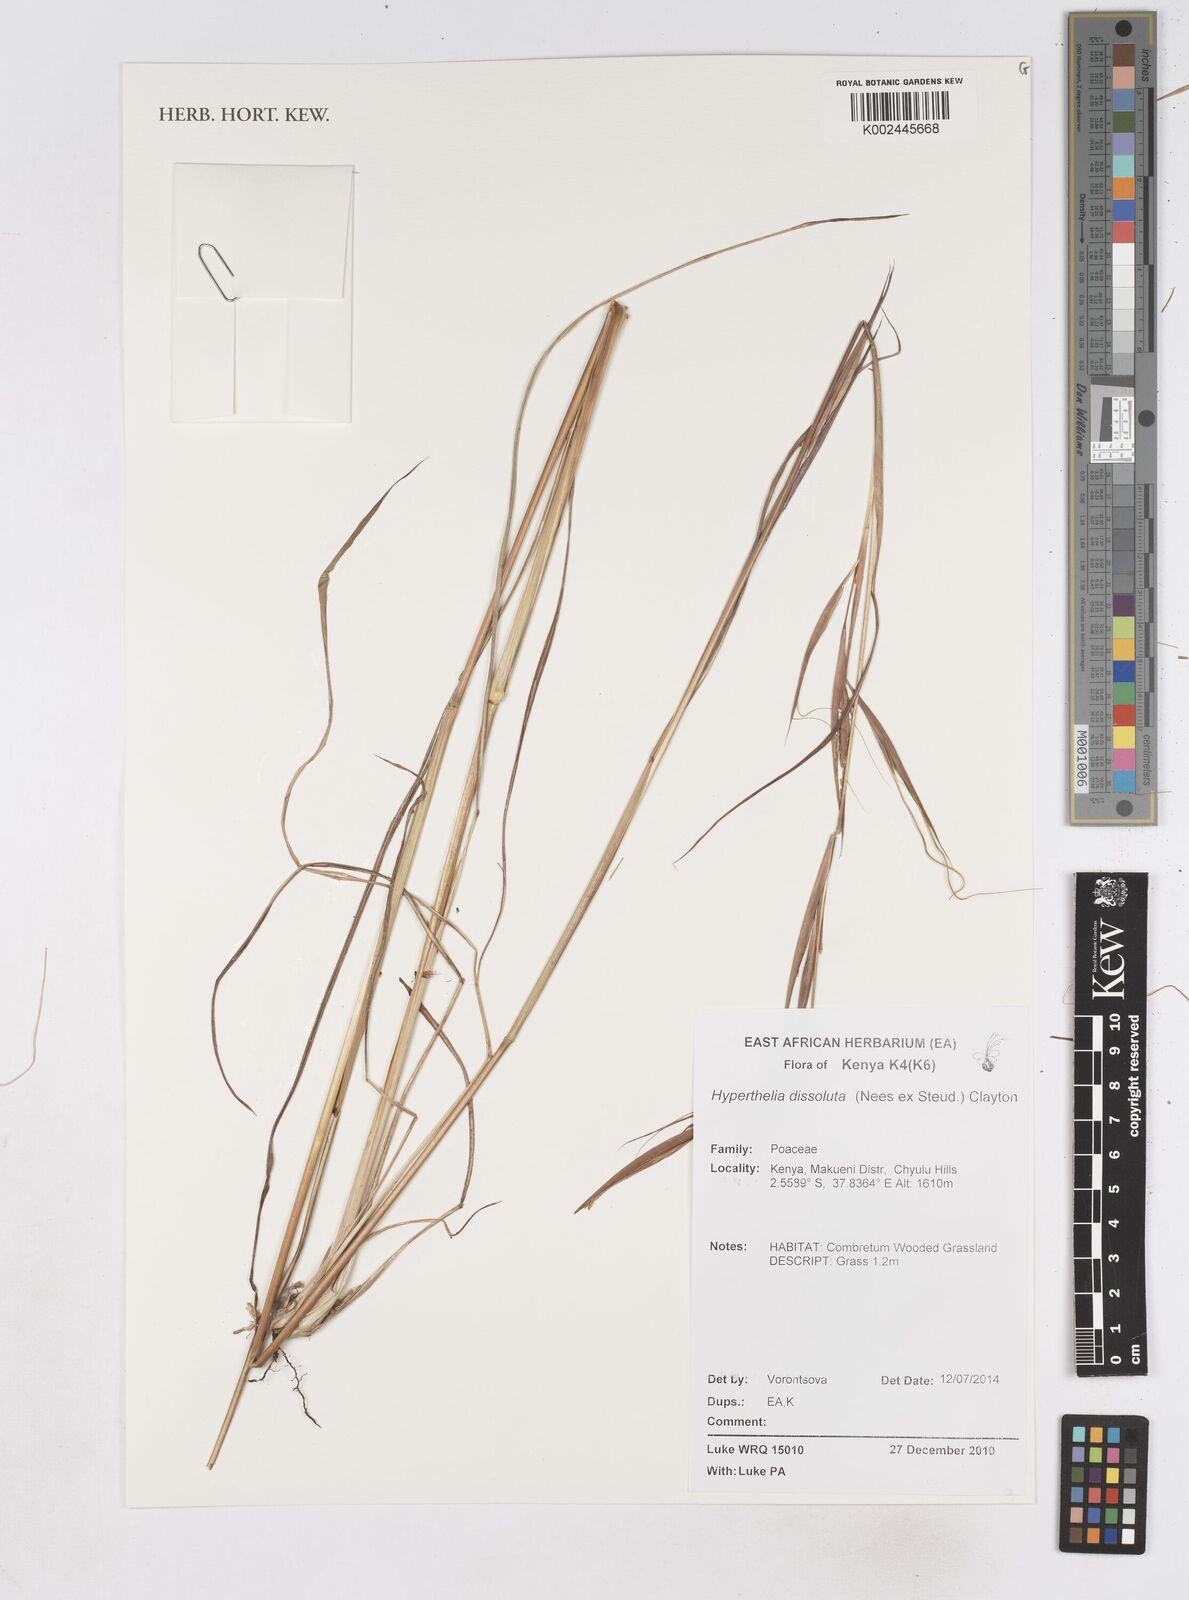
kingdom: Plantae
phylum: Tracheophyta
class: Liliopsida
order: Poales
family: Poaceae
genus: Hyperthelia
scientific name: Hyperthelia dissoluta
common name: Yellow thatching grass
